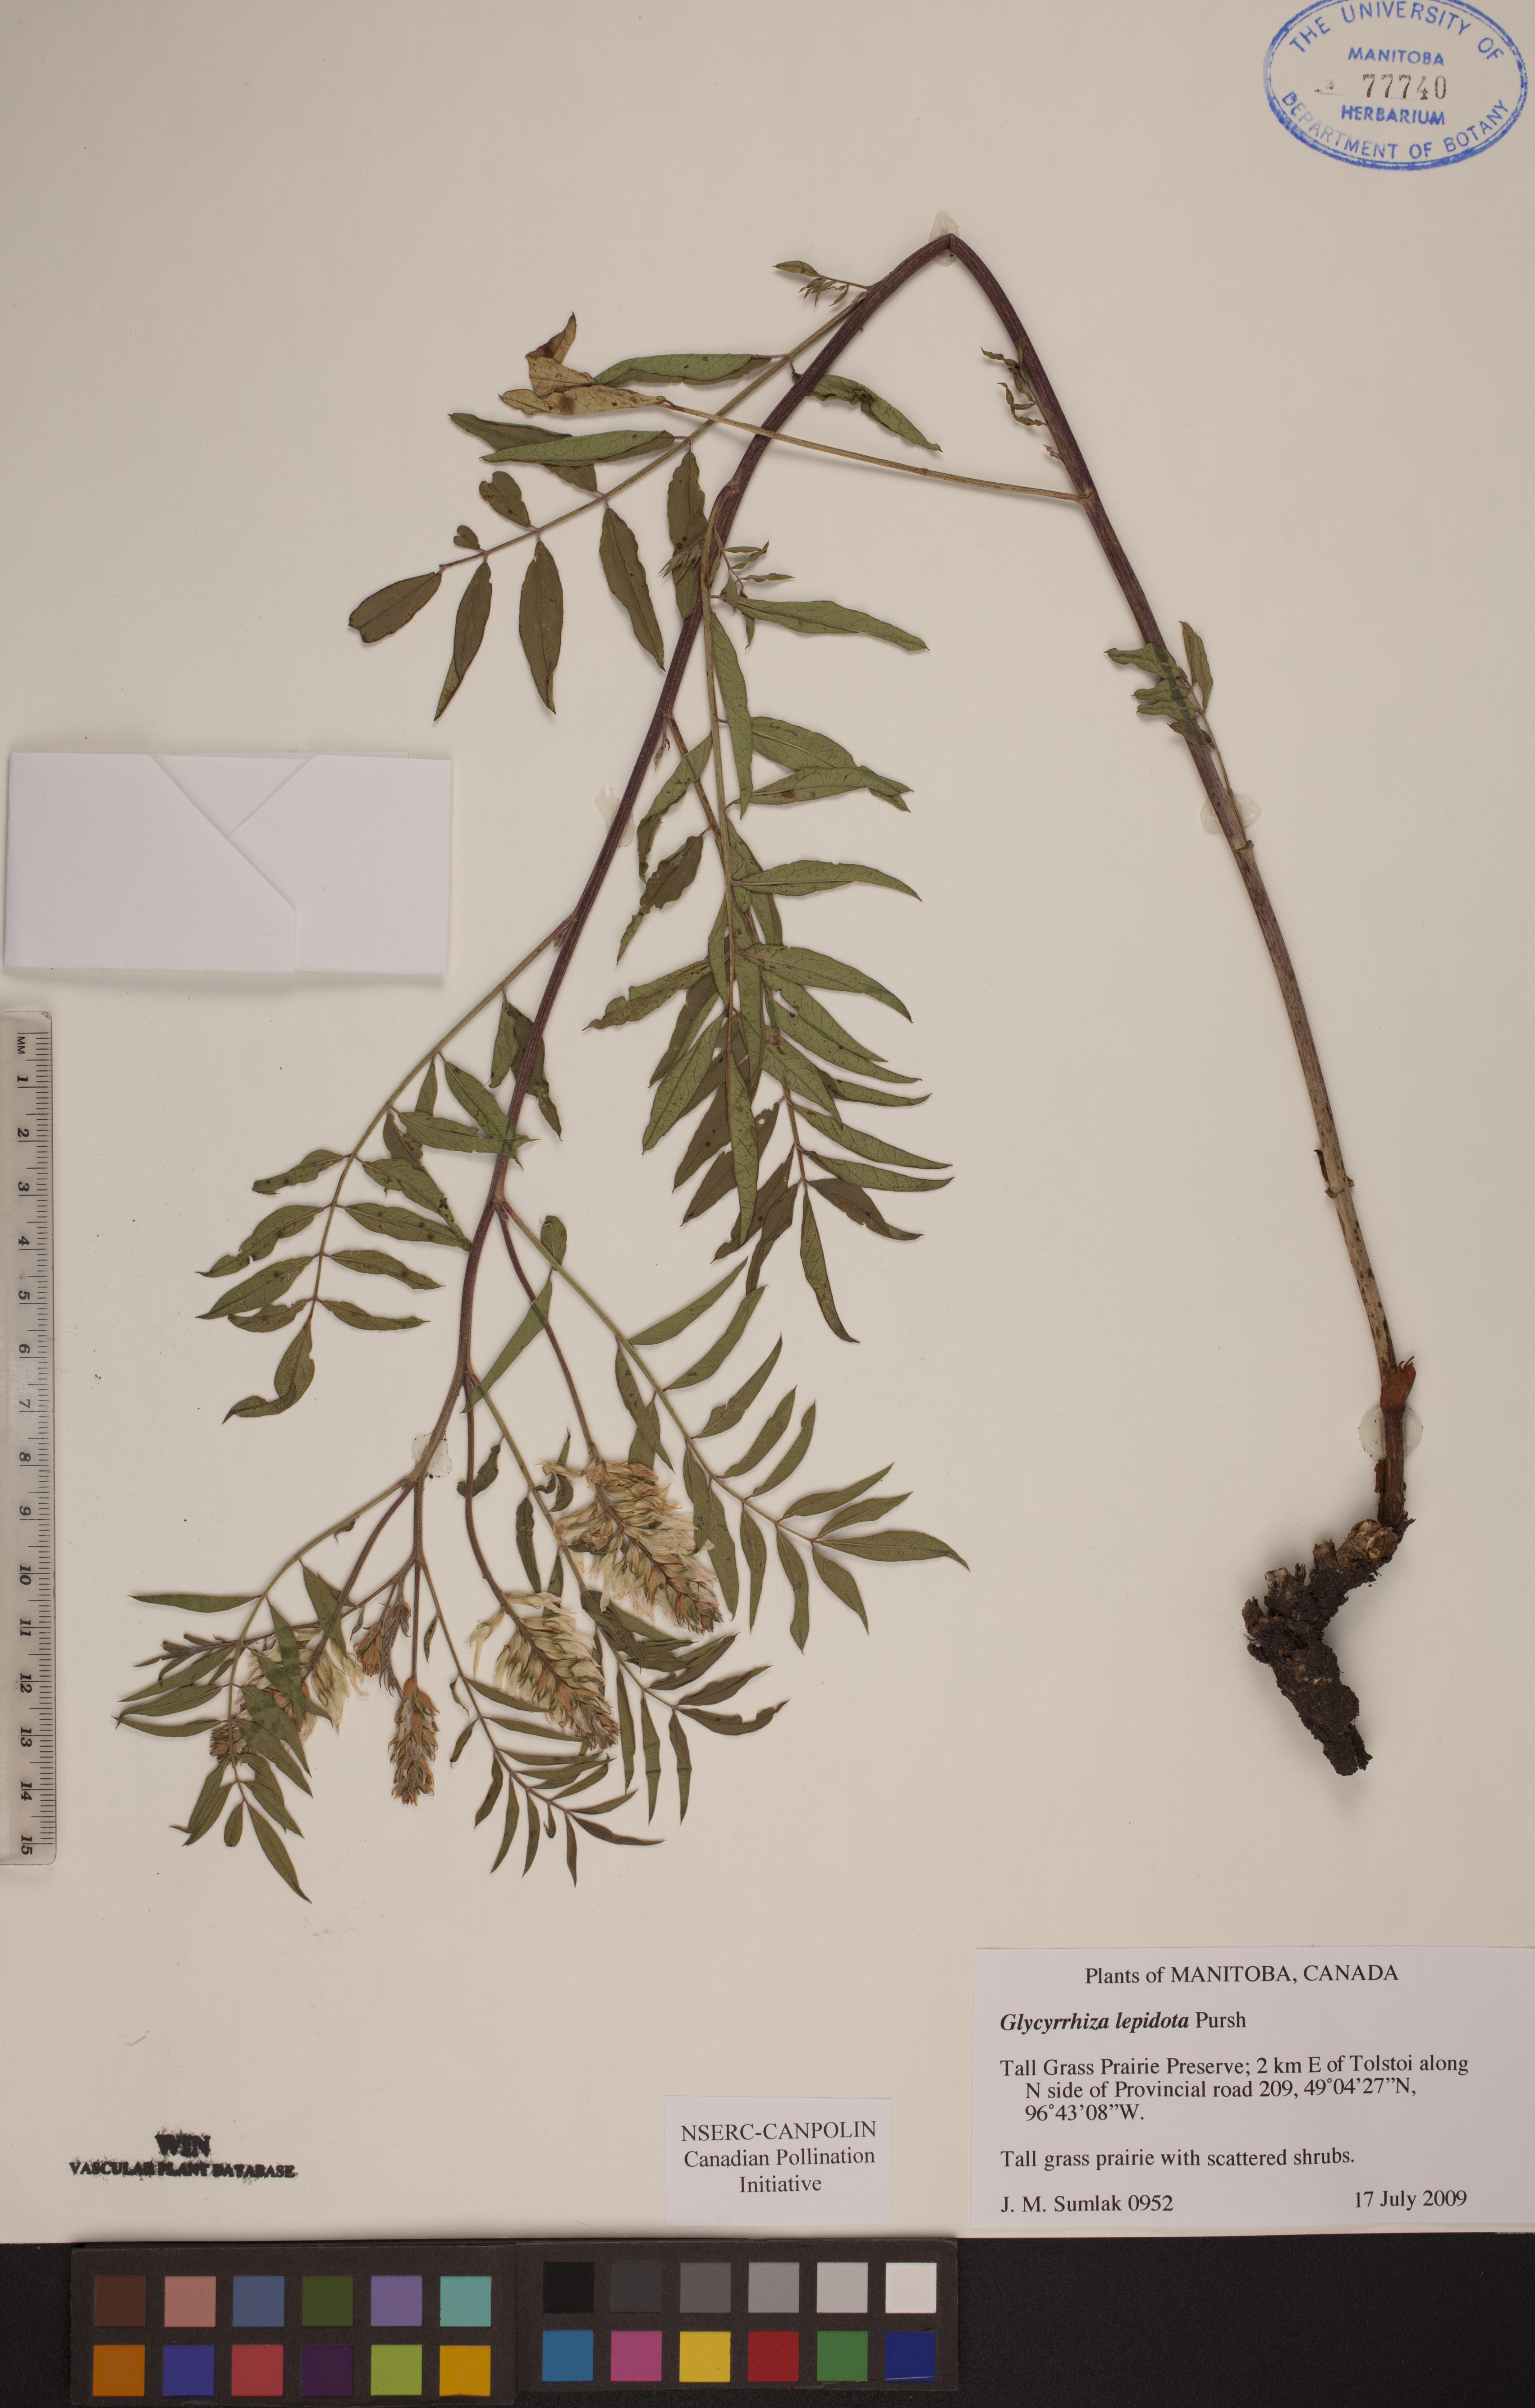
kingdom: Plantae
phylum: Tracheophyta
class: Magnoliopsida
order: Fabales
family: Fabaceae
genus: Glycyrrhiza
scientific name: Glycyrrhiza lepidota
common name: American liquorice
